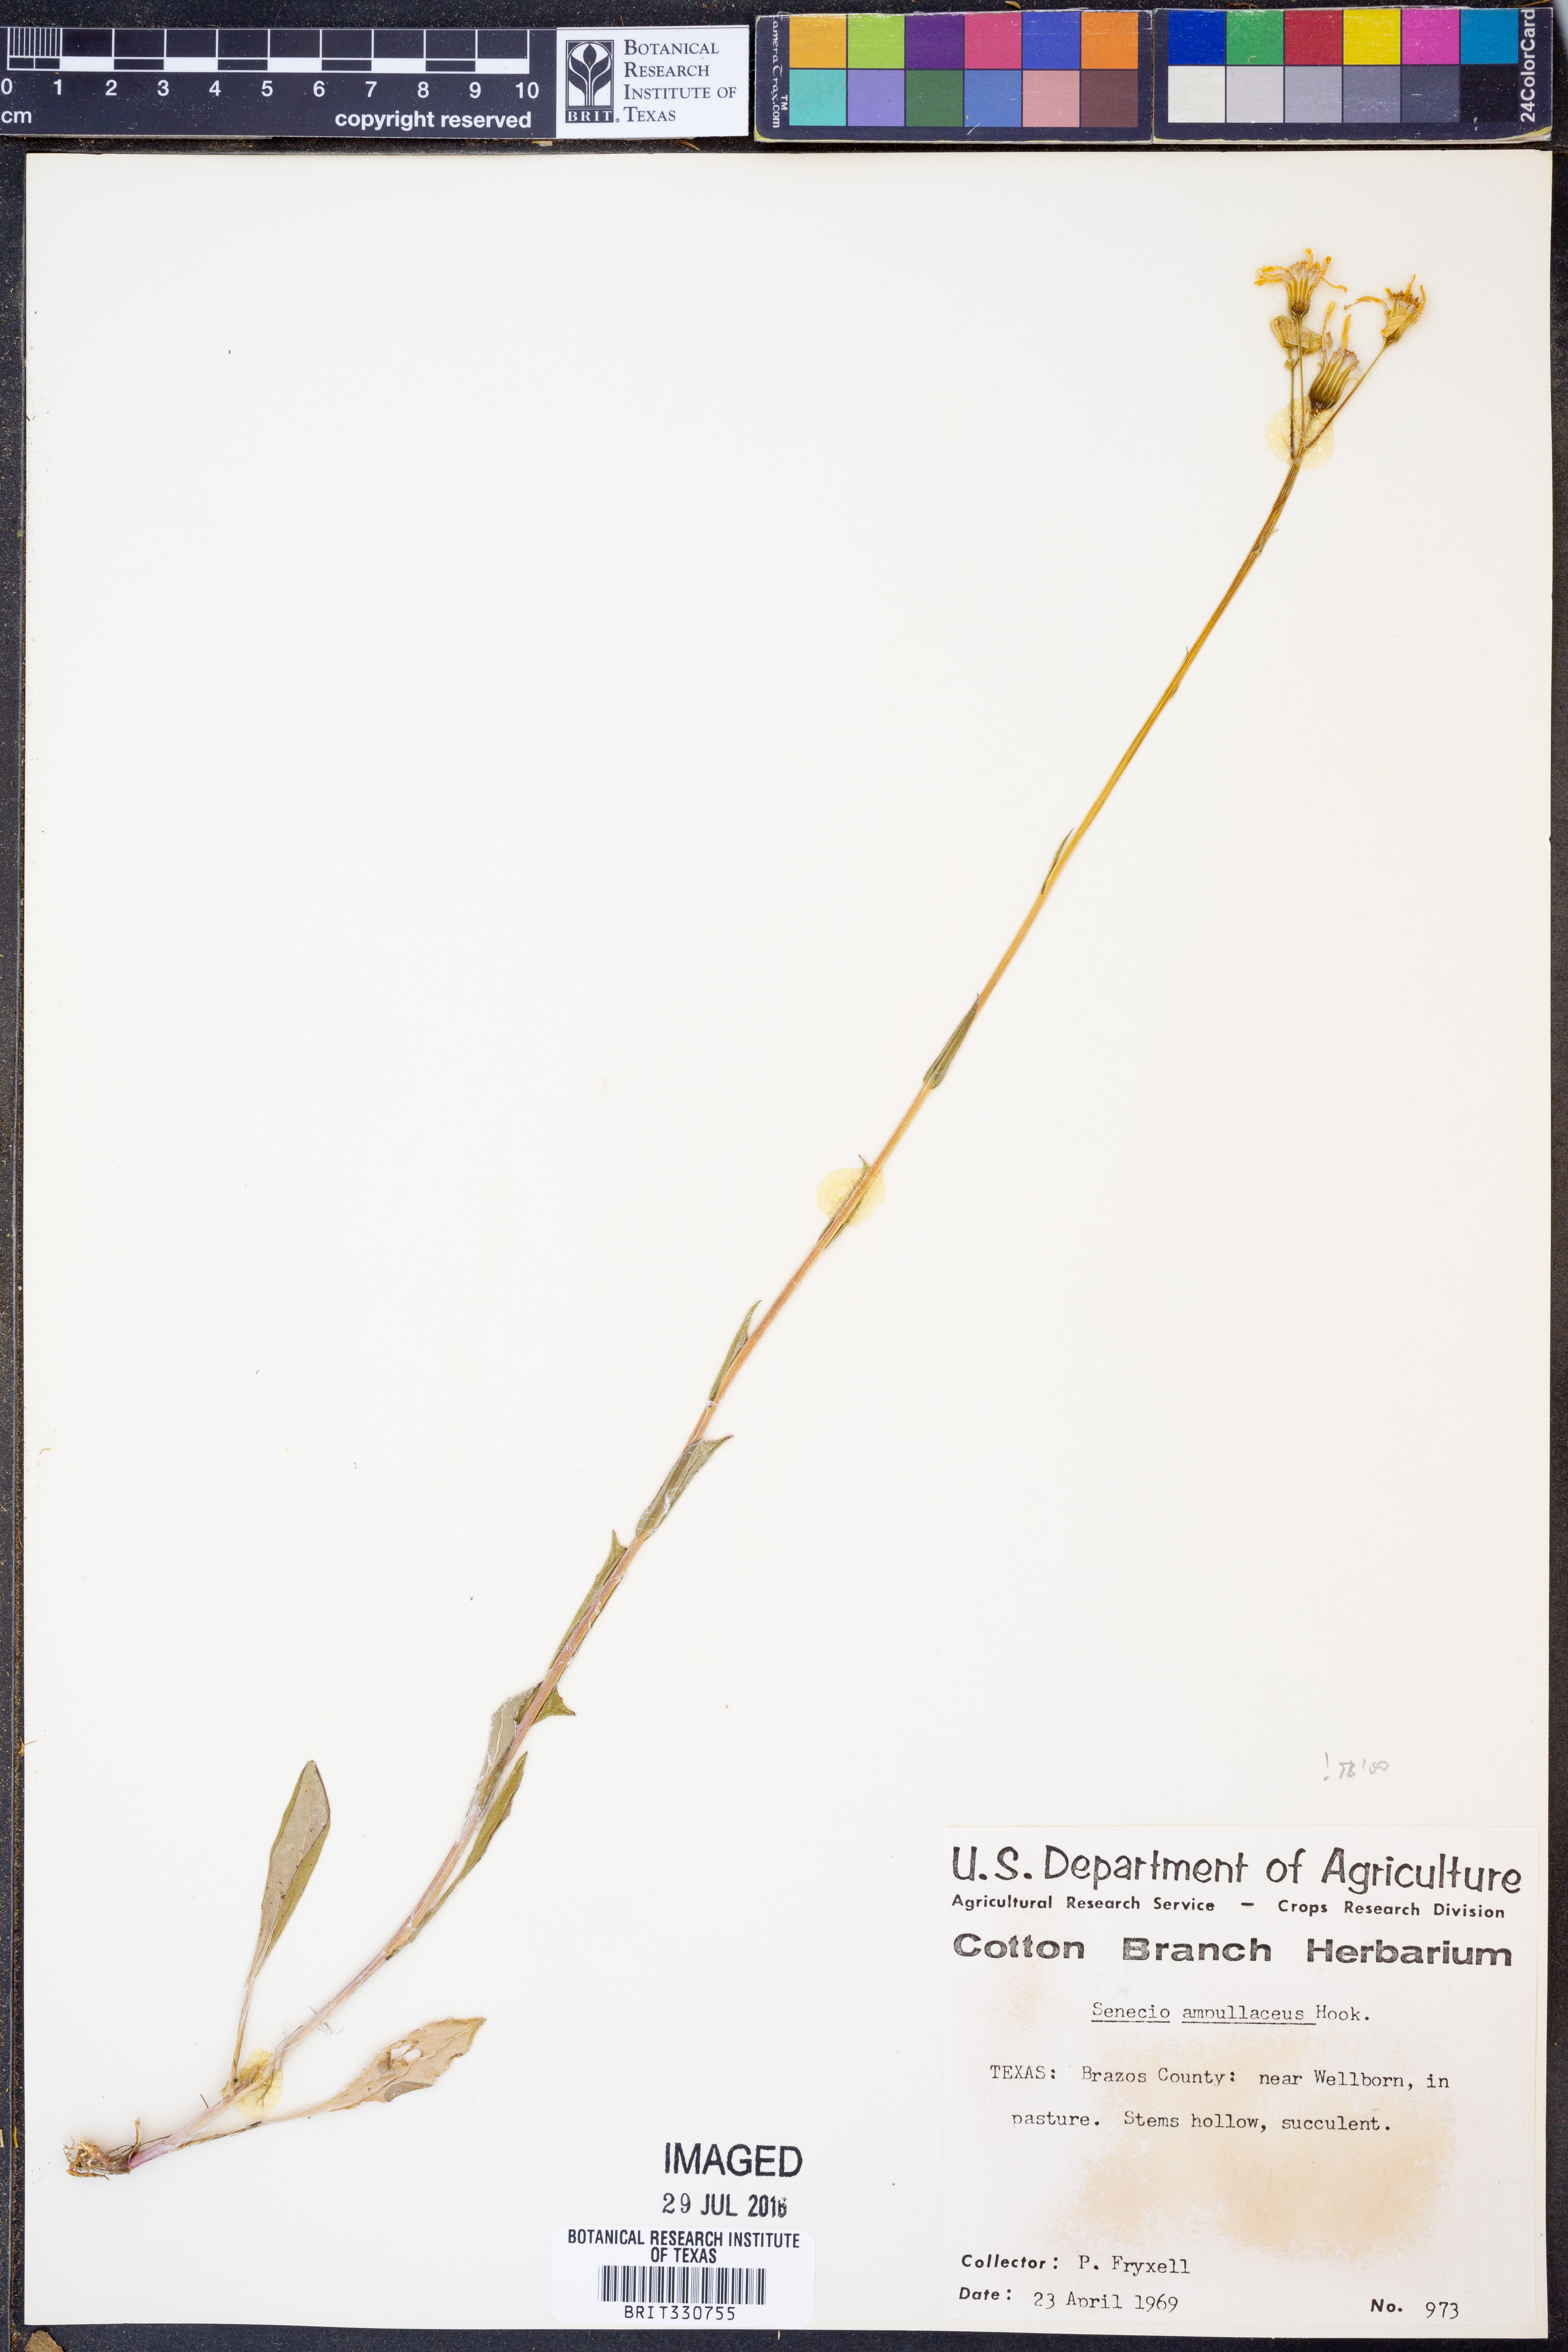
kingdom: Plantae
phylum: Tracheophyta
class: Magnoliopsida
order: Asterales
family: Asteraceae
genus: Senecio
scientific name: Senecio ampullaceus
